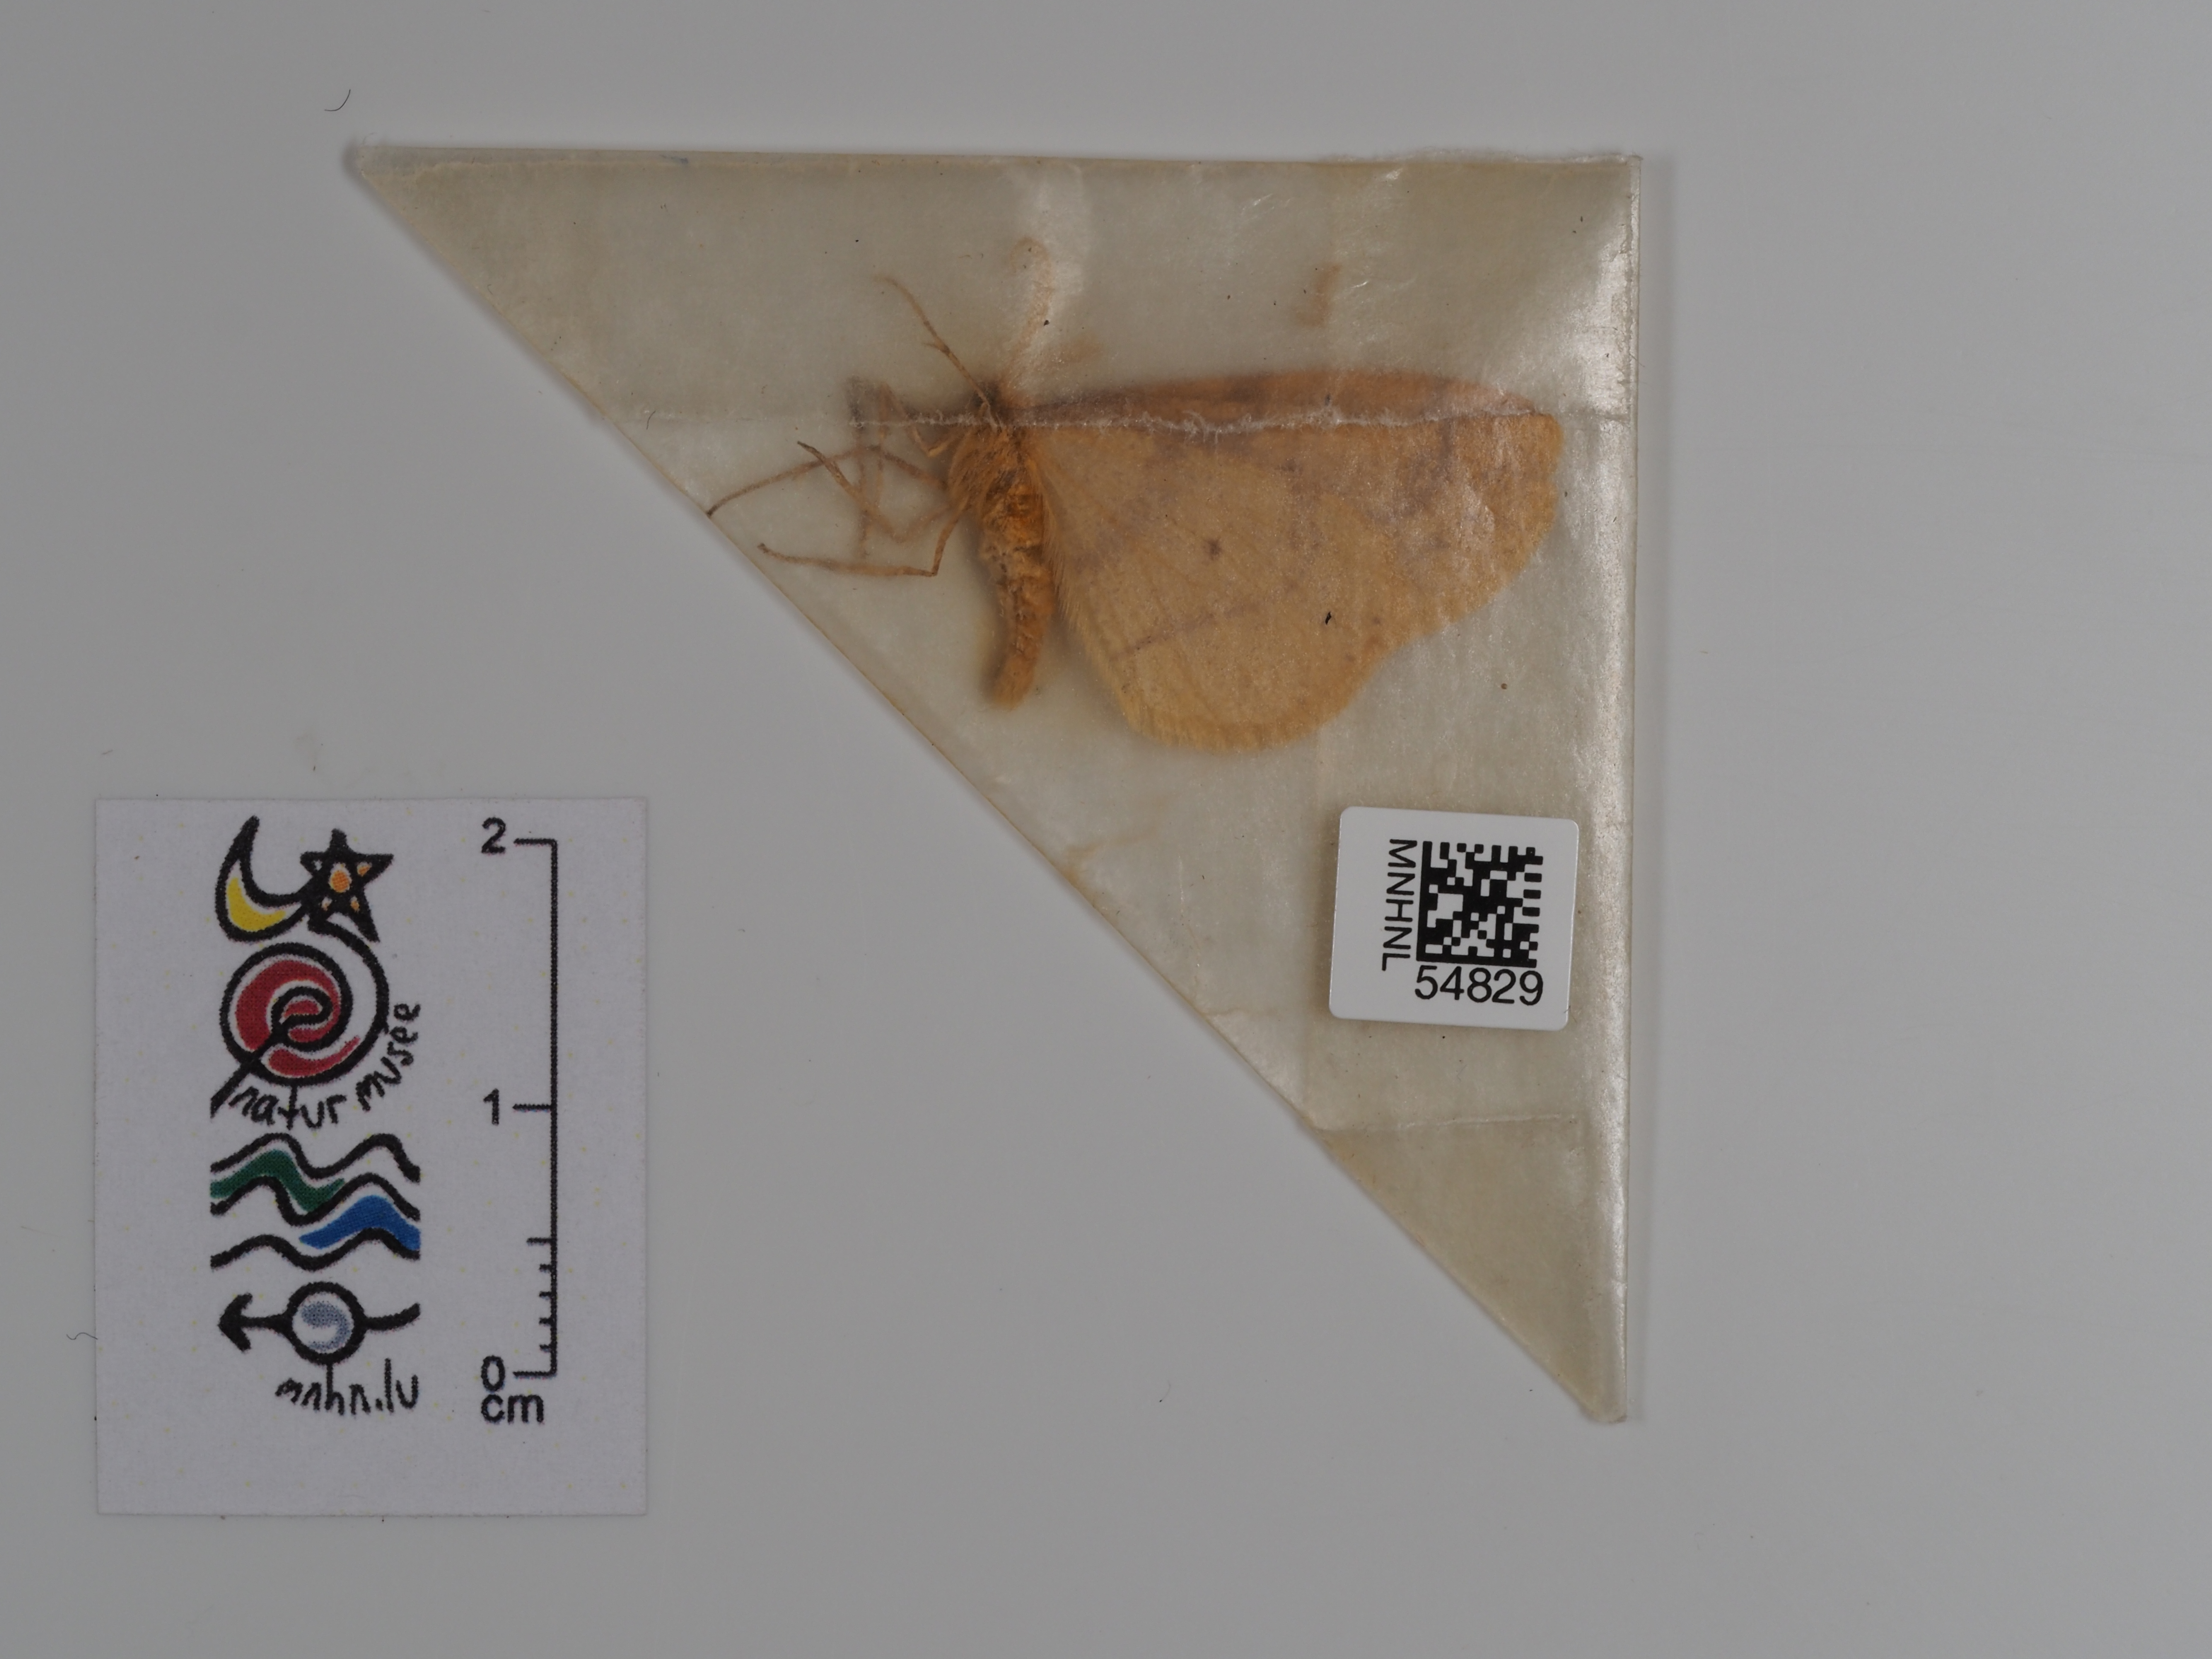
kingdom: Animalia
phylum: Arthropoda
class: Insecta
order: Lepidoptera
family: Geometridae
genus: Agriopis
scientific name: Agriopis aurantiaria
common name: Scarce umber
